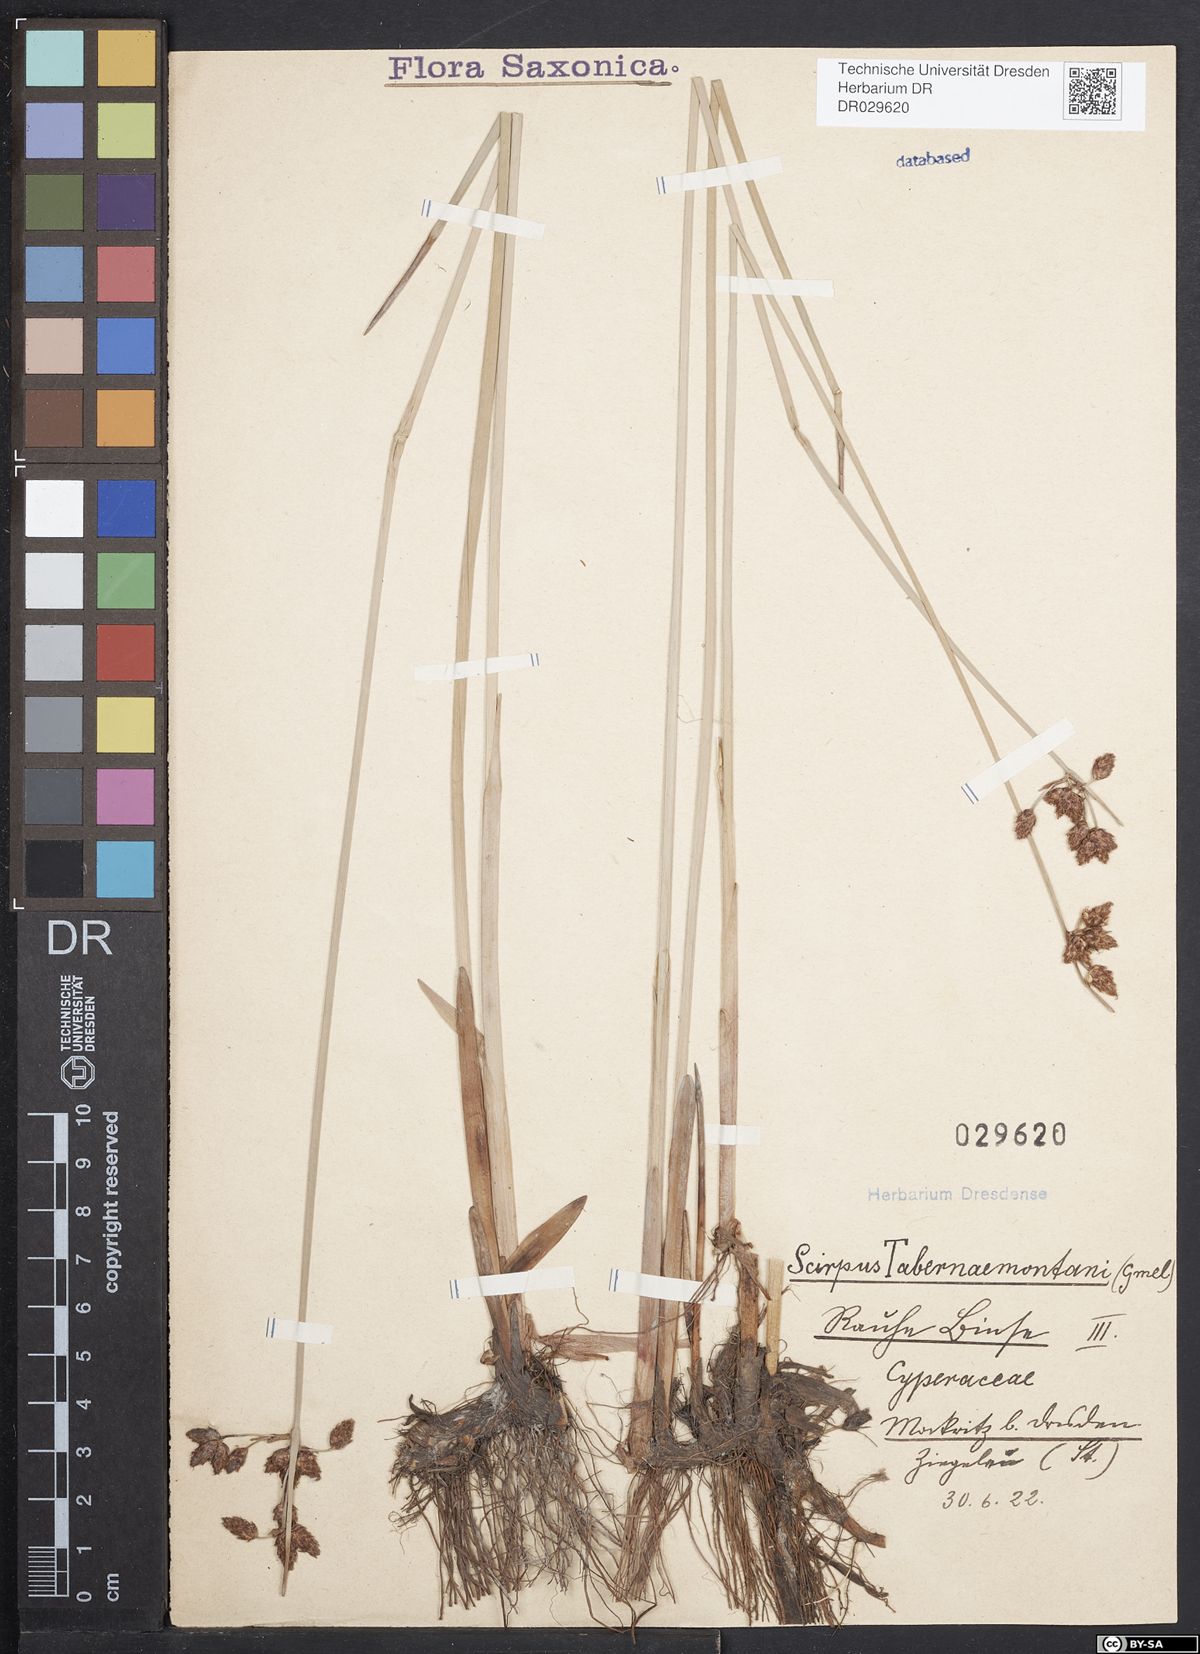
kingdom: Plantae
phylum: Tracheophyta
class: Liliopsida
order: Poales
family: Cyperaceae
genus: Schoenoplectus
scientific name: Schoenoplectus tabernaemontani
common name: Grey club-rush
